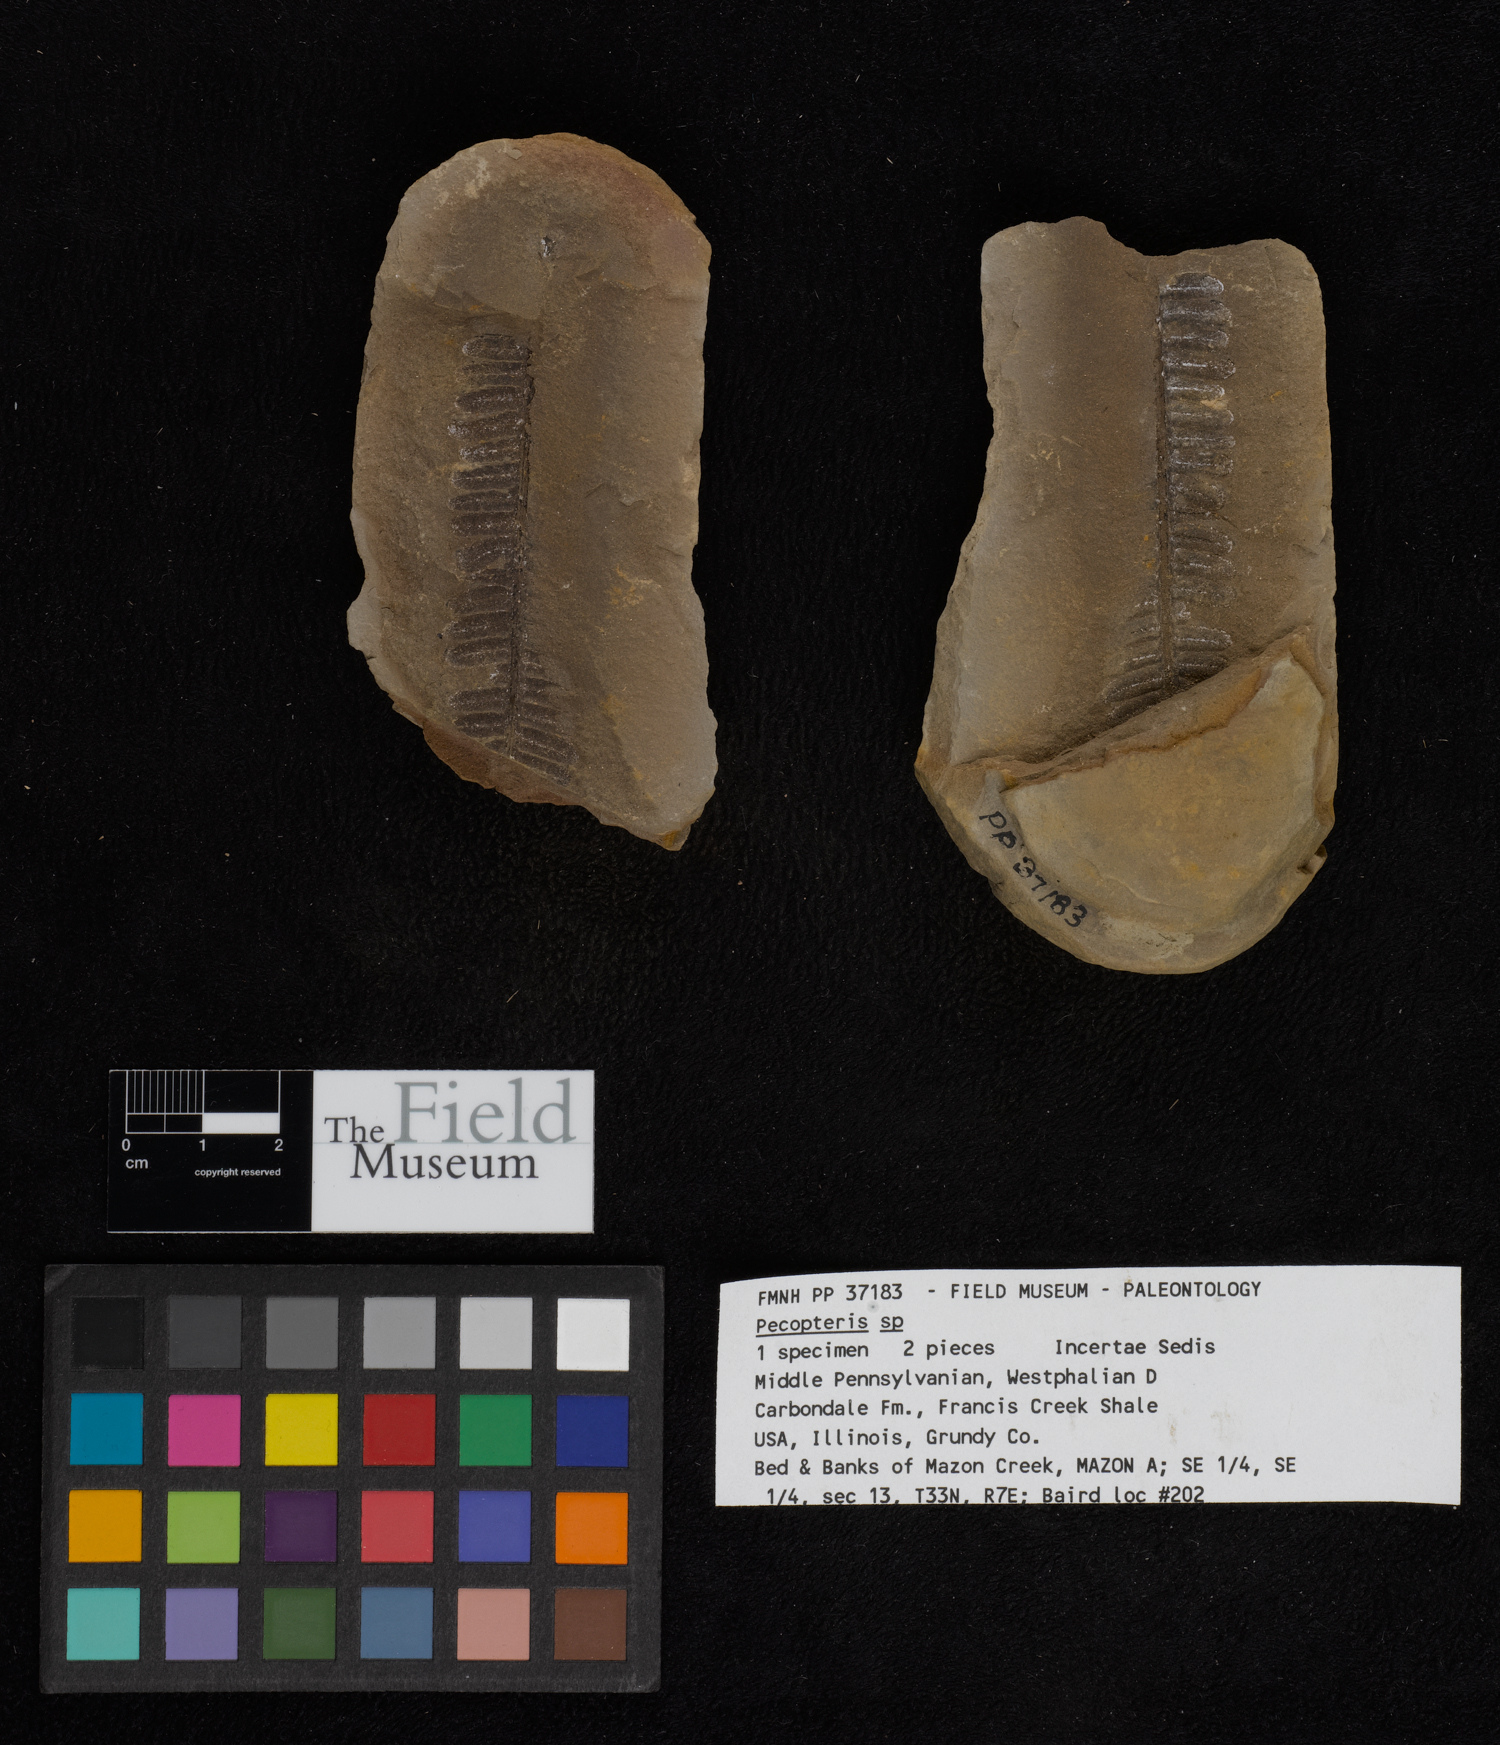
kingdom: Plantae
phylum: Tracheophyta
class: Polypodiopsida
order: Marattiales
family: Asterothecaceae
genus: Pecopteris
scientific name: Pecopteris
